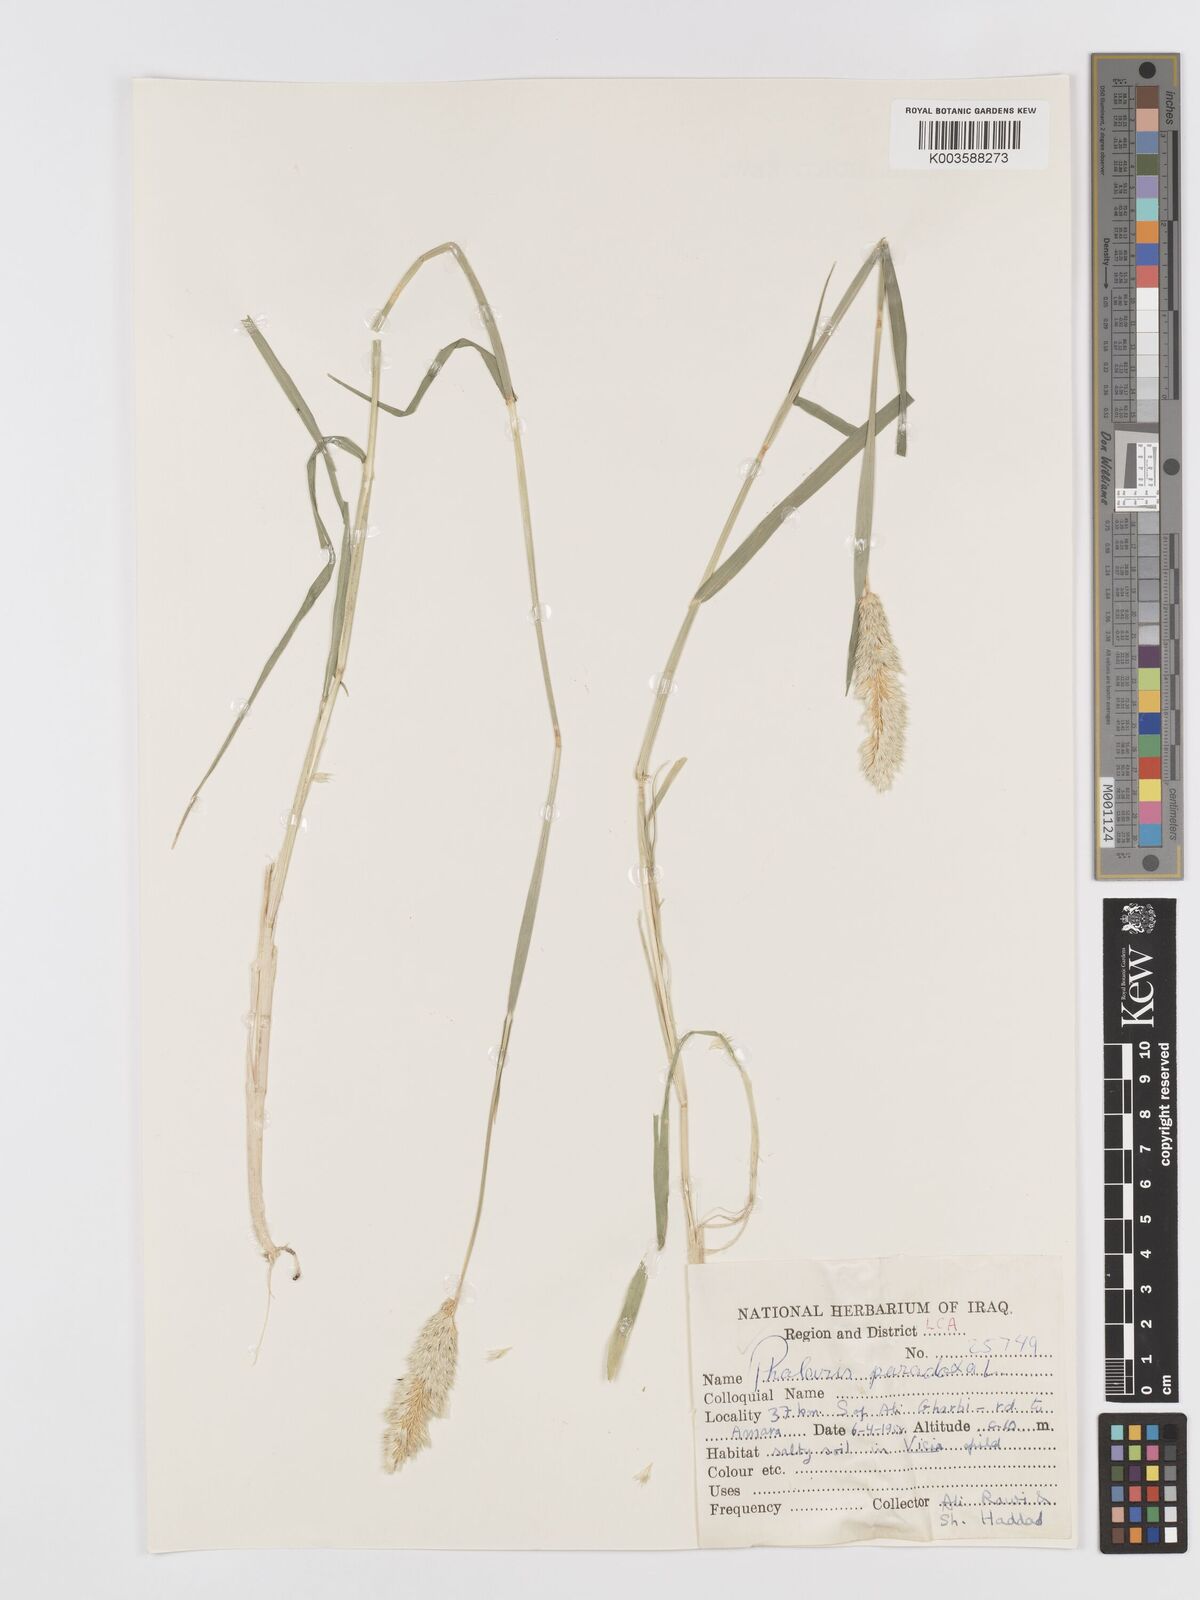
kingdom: Plantae
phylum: Tracheophyta
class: Liliopsida
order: Poales
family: Poaceae
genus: Phalaris
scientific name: Phalaris paradoxa
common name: Awned canary-grass
